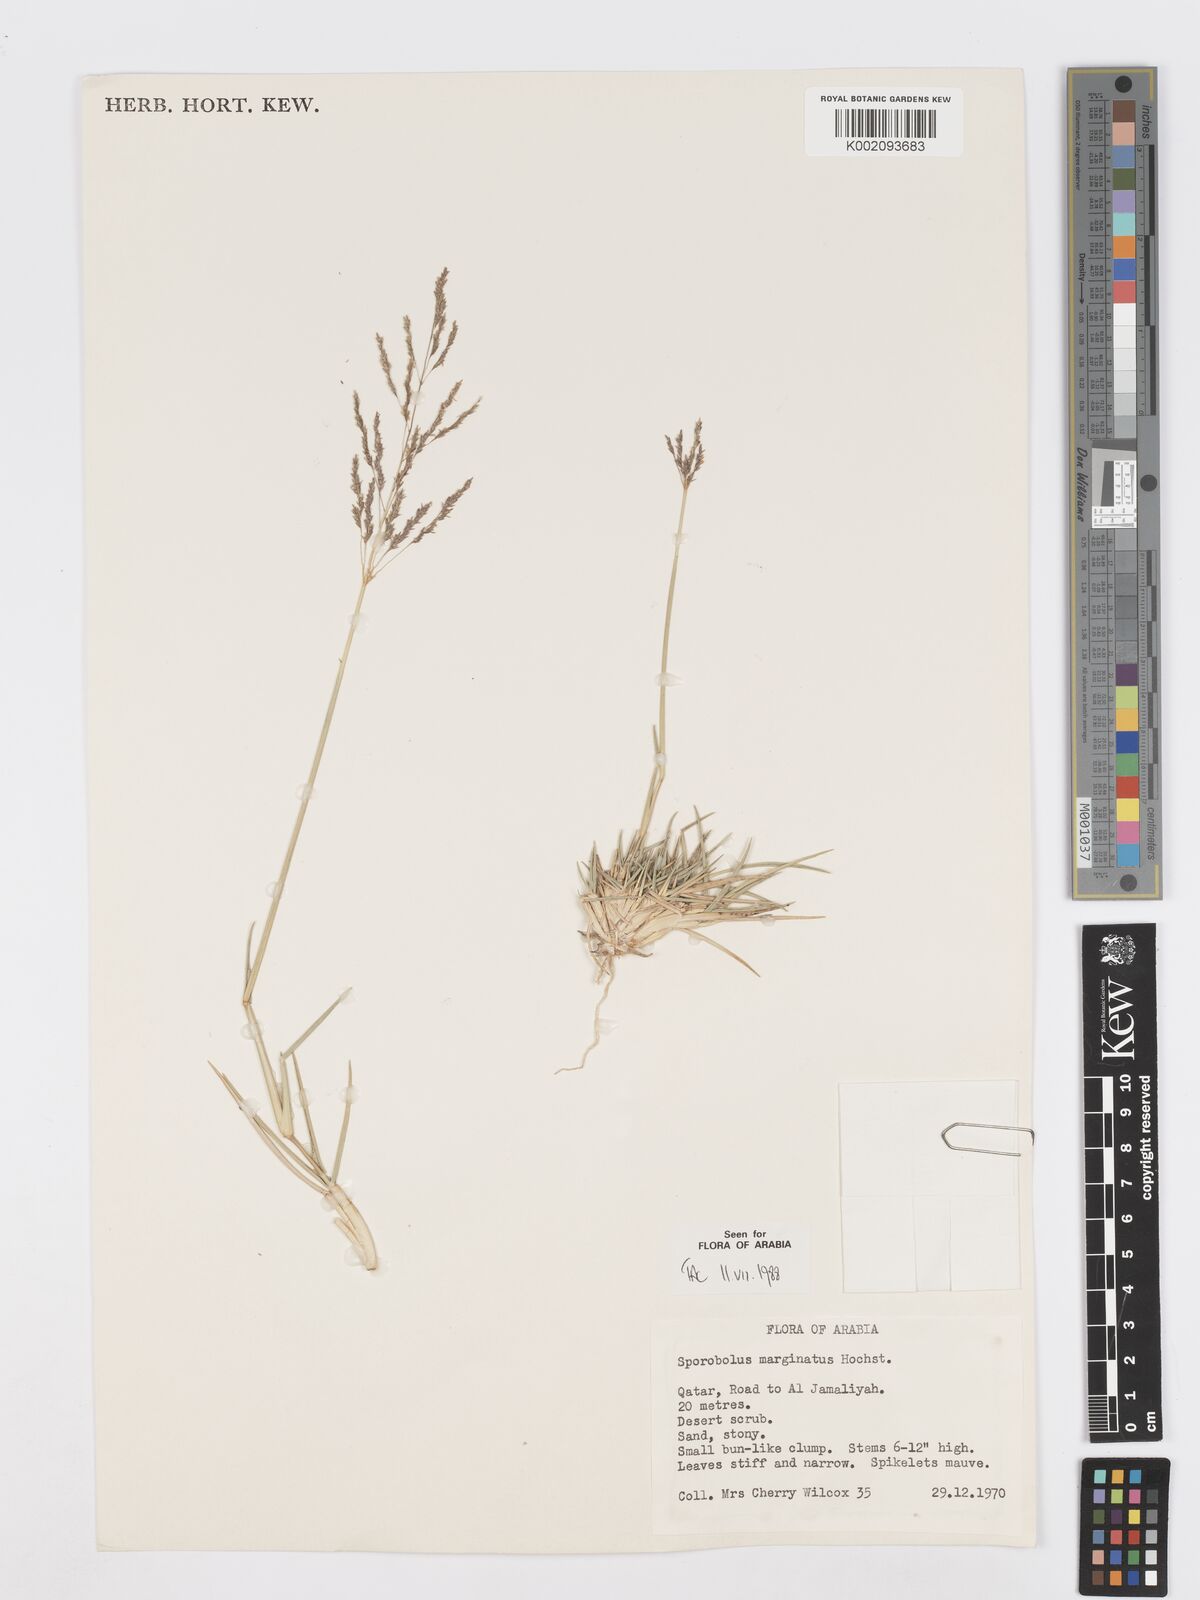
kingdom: Plantae
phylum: Tracheophyta
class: Liliopsida
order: Poales
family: Poaceae
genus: Sporobolus
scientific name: Sporobolus ioclados
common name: Pan dropseed
